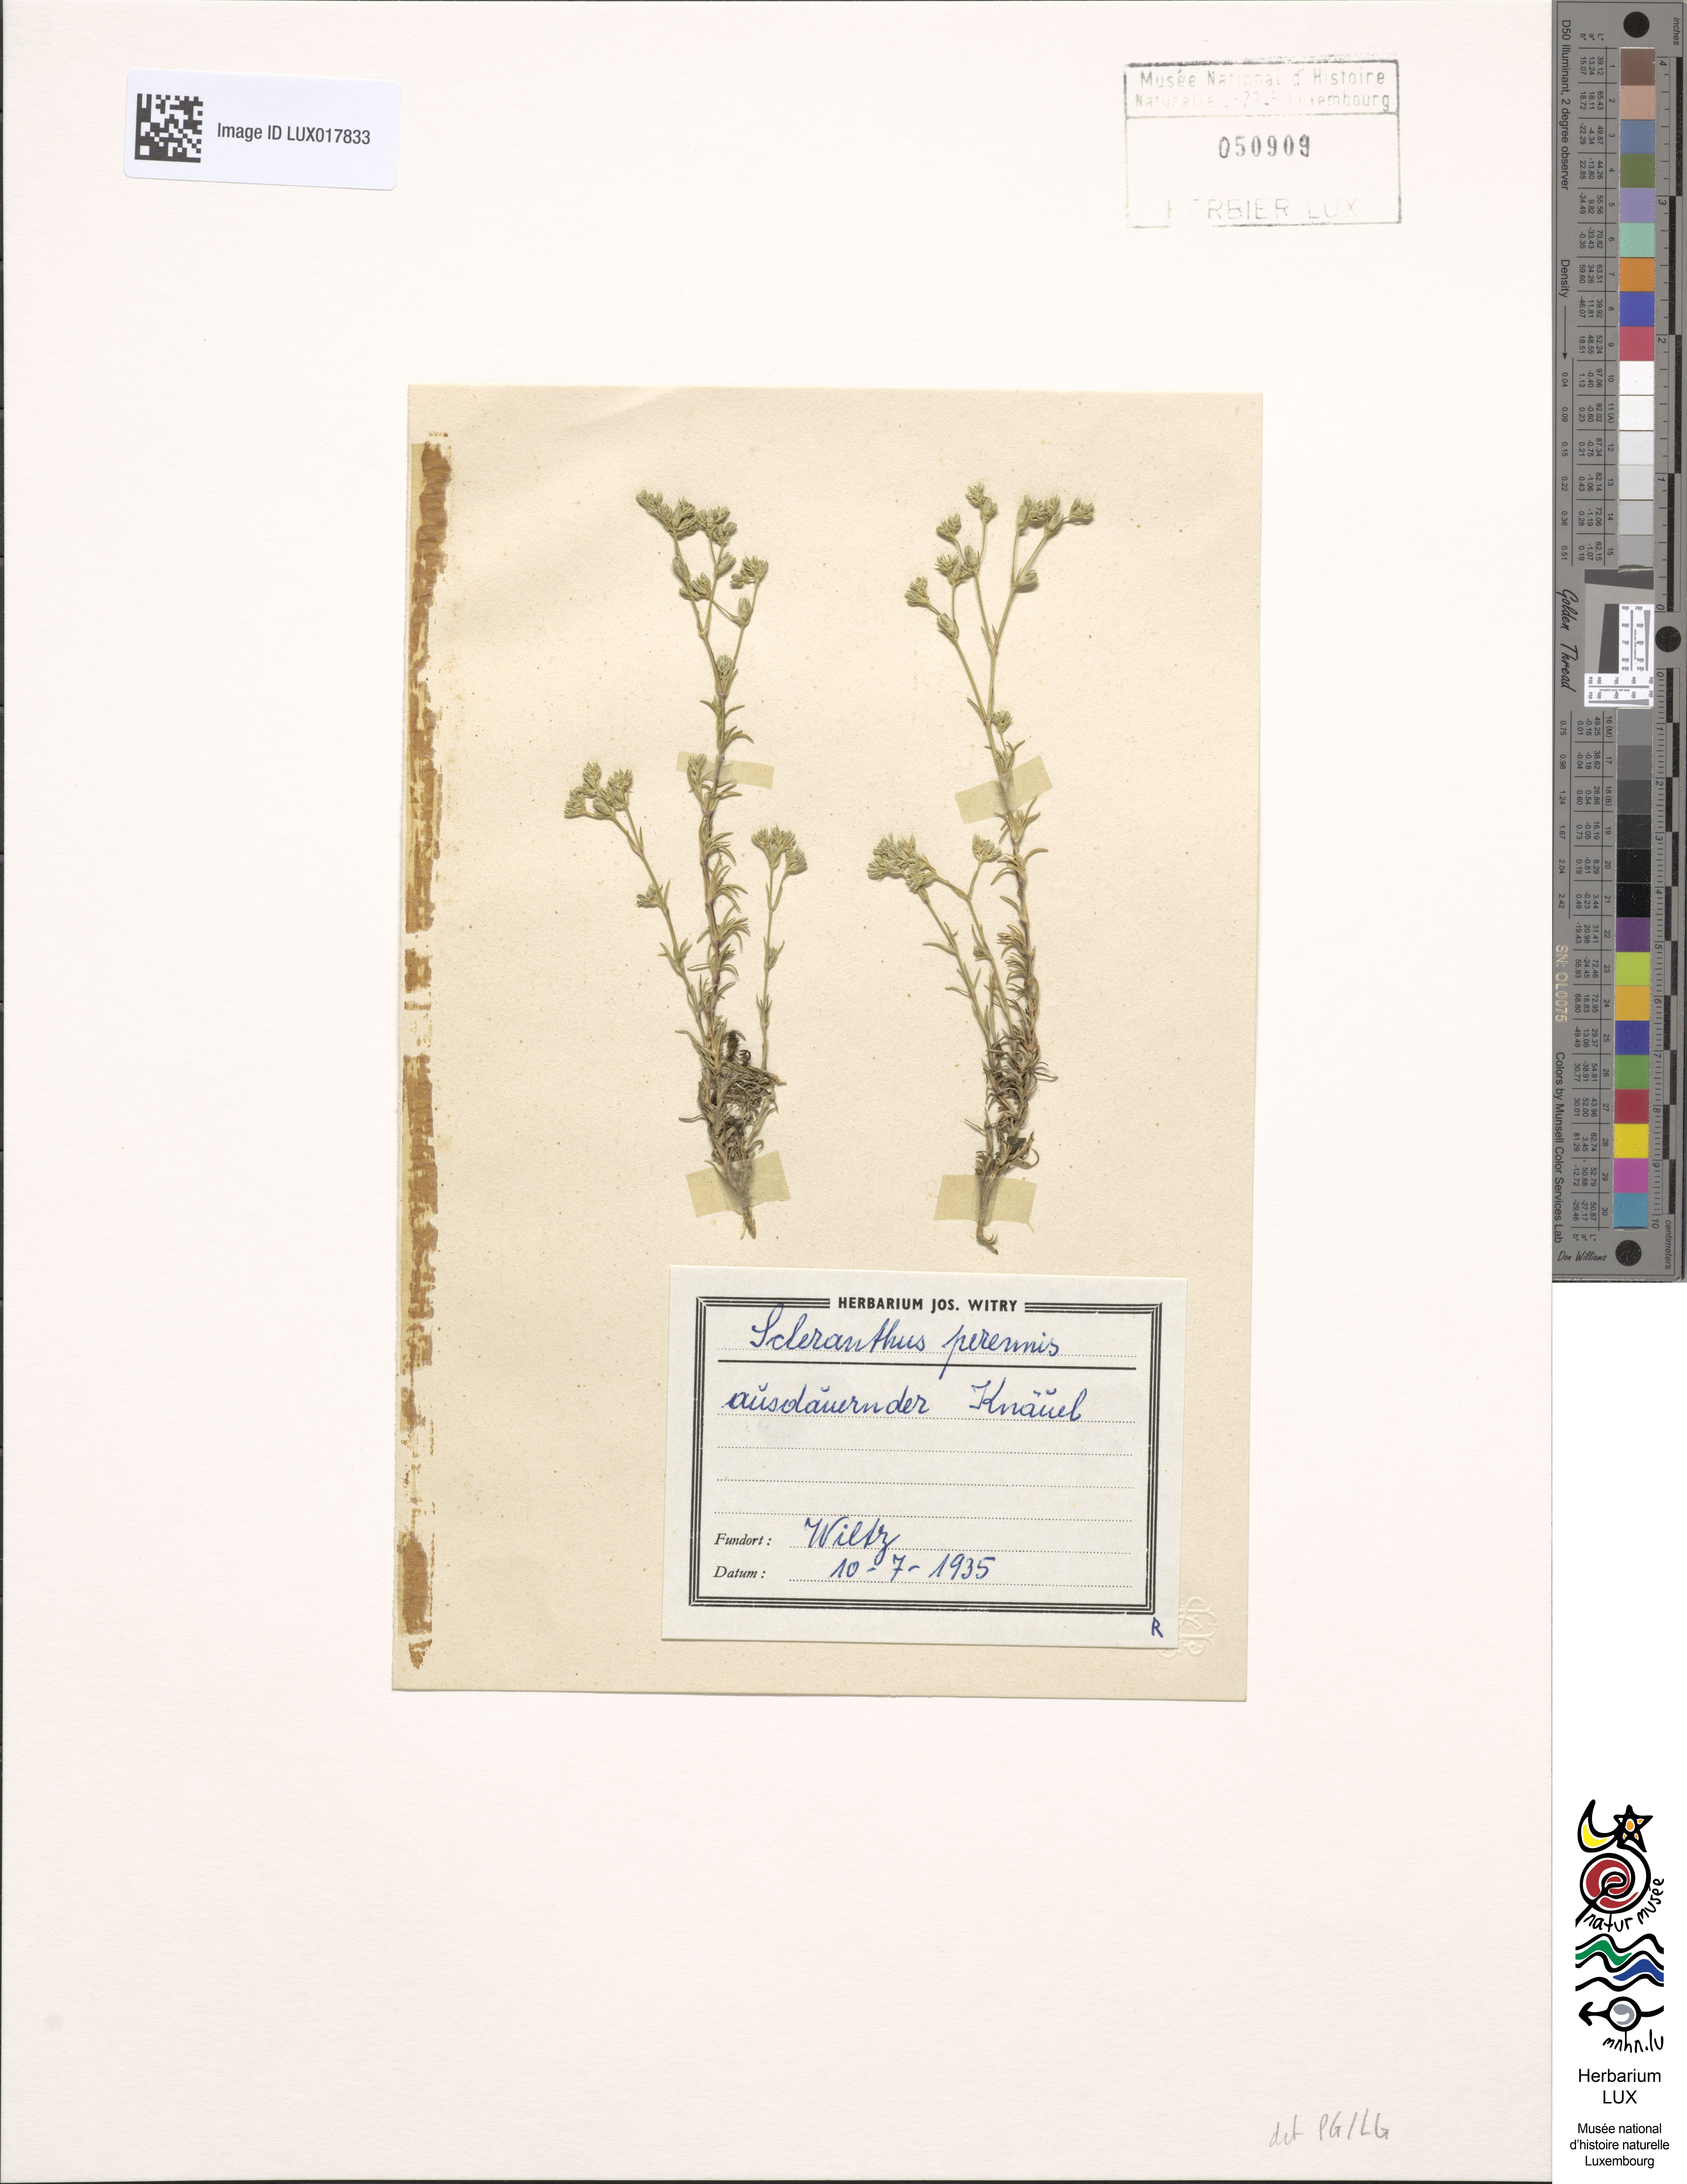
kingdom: Plantae
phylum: Tracheophyta
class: Magnoliopsida
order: Caryophyllales
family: Caryophyllaceae
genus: Scleranthus
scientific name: Scleranthus perennis
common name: Perennial knawel
